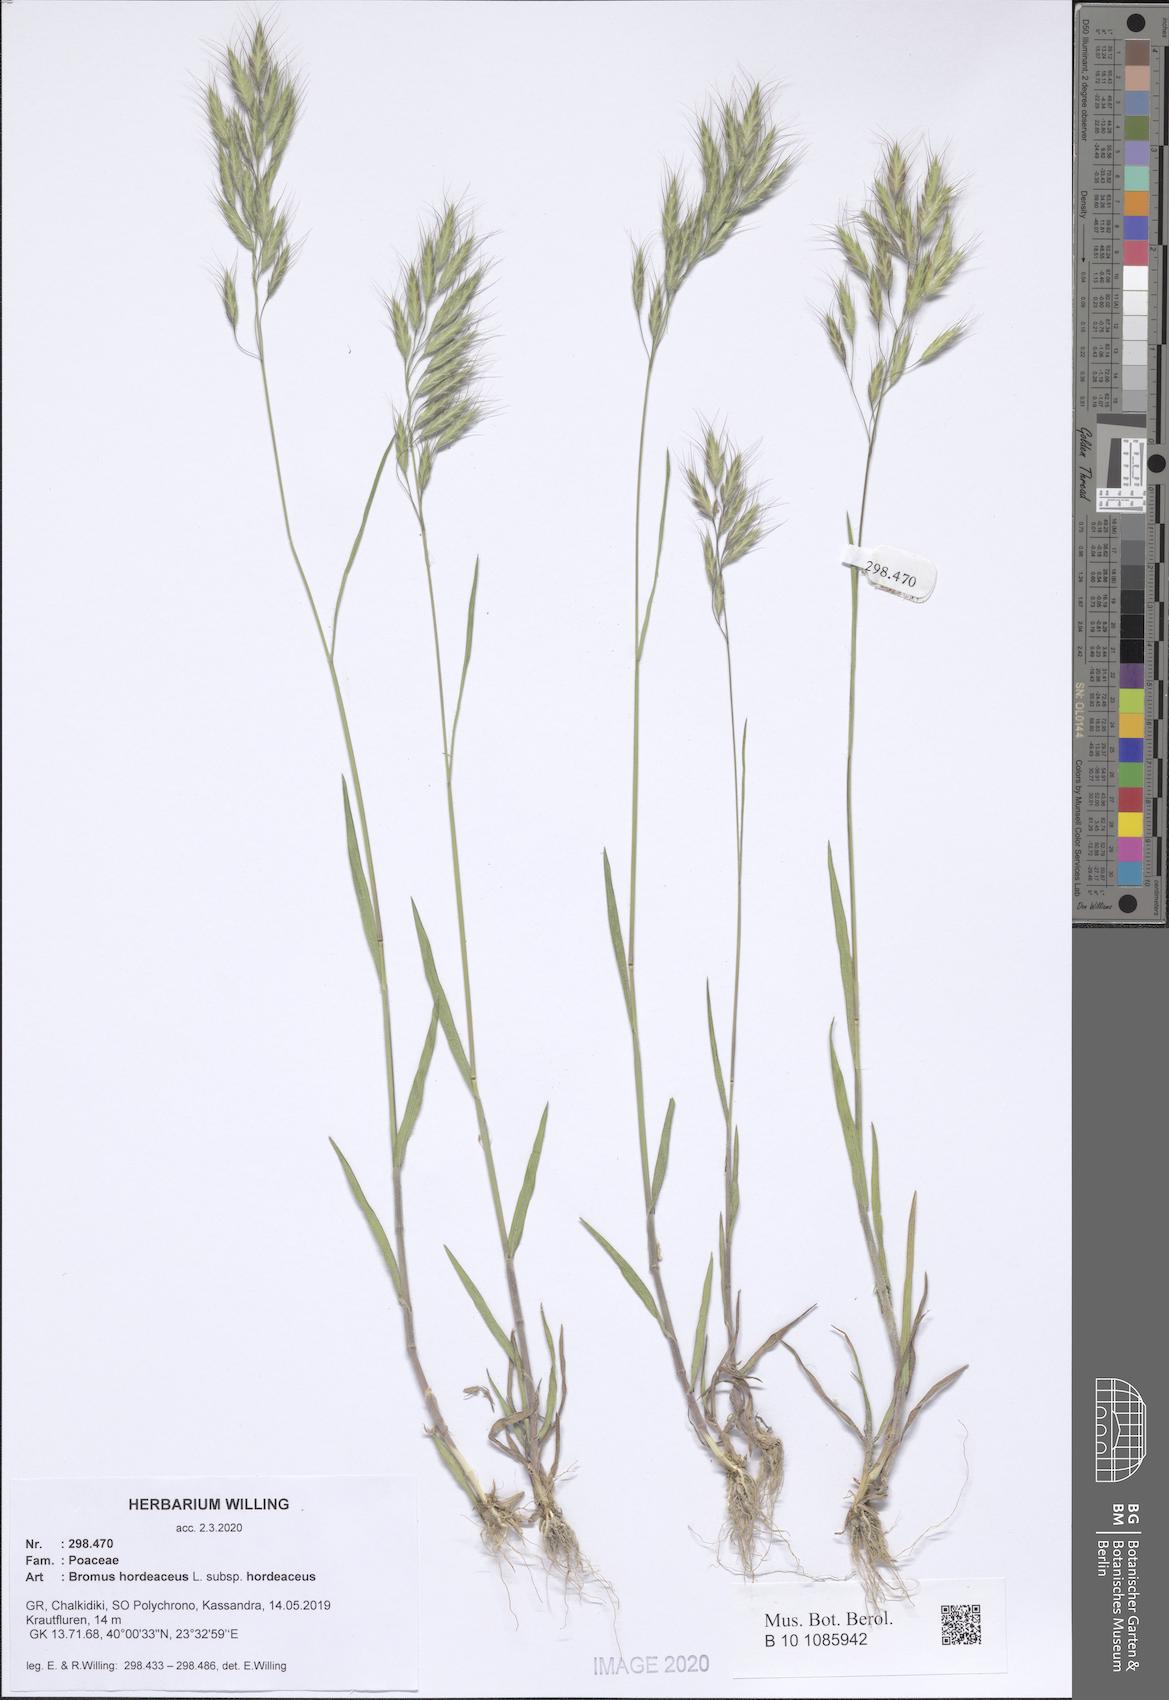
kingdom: Plantae
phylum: Tracheophyta
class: Liliopsida
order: Poales
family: Poaceae
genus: Bromus
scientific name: Bromus hordeaceus
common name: Soft brome
